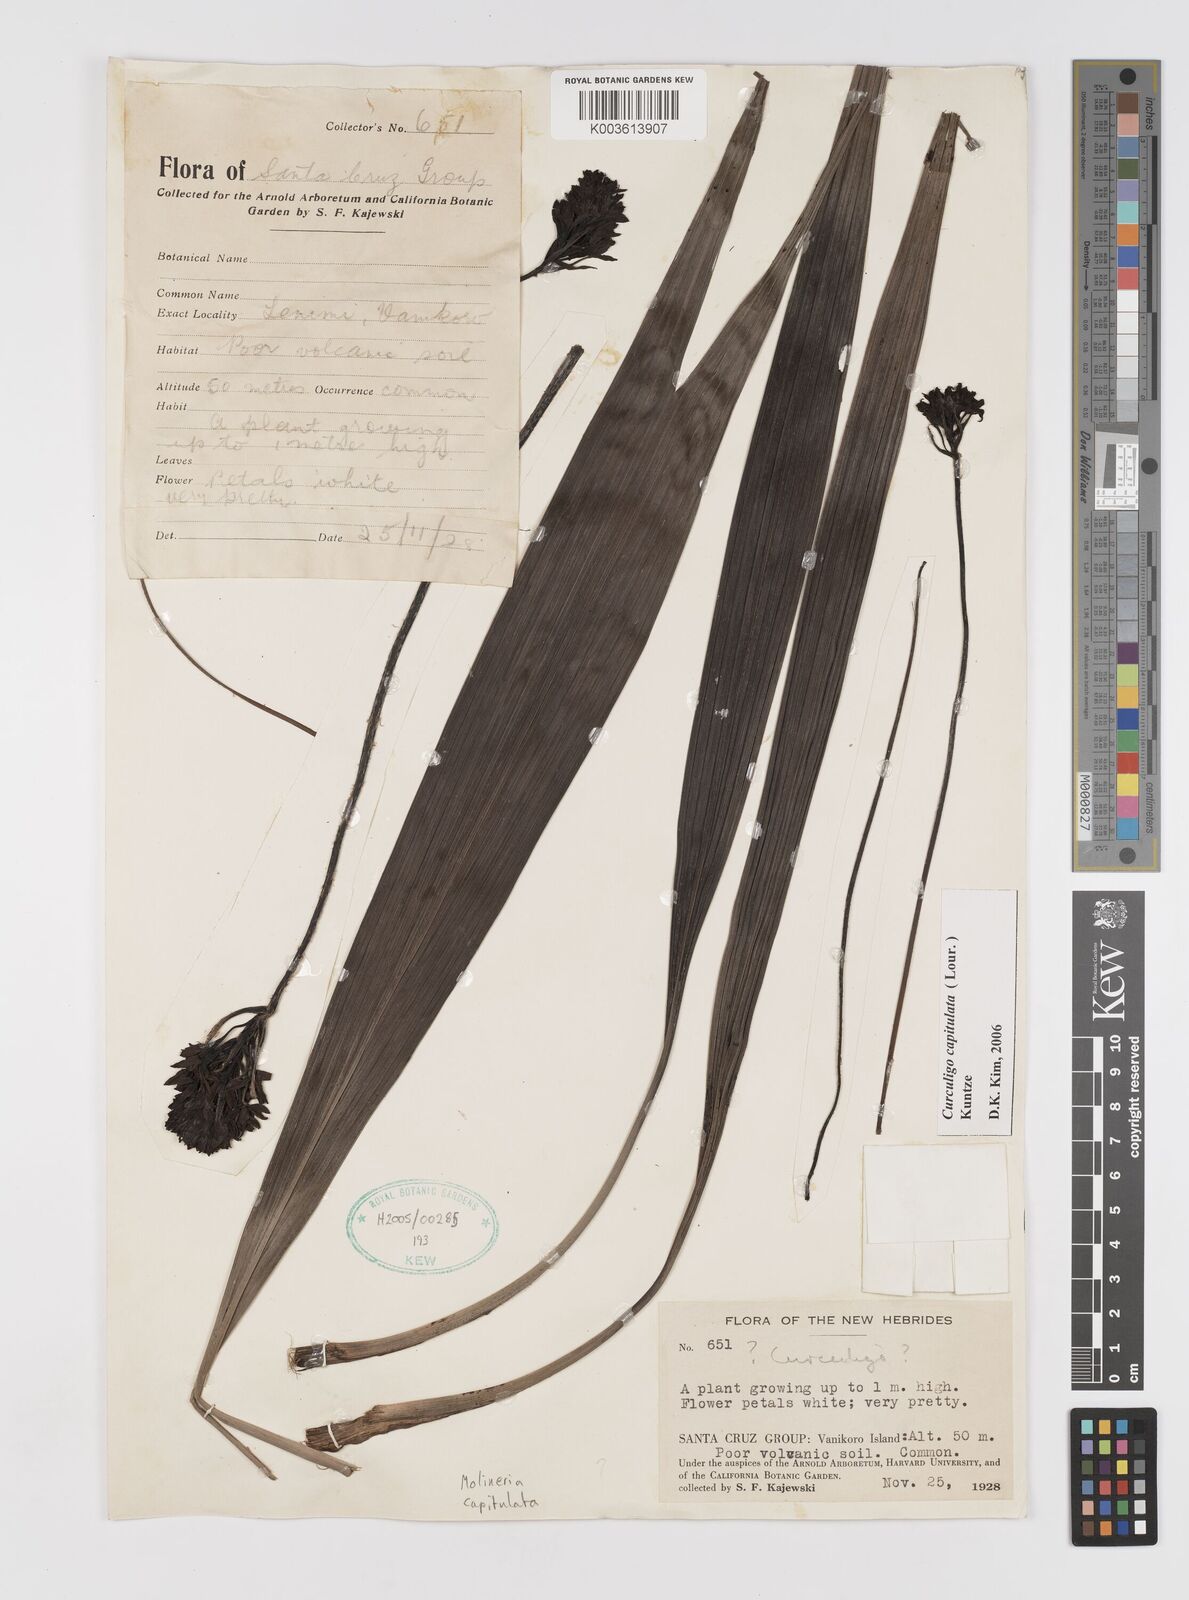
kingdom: Plantae
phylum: Tracheophyta
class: Liliopsida
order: Asparagales
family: Hypoxidaceae
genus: Curculigo
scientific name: Curculigo capitulata
